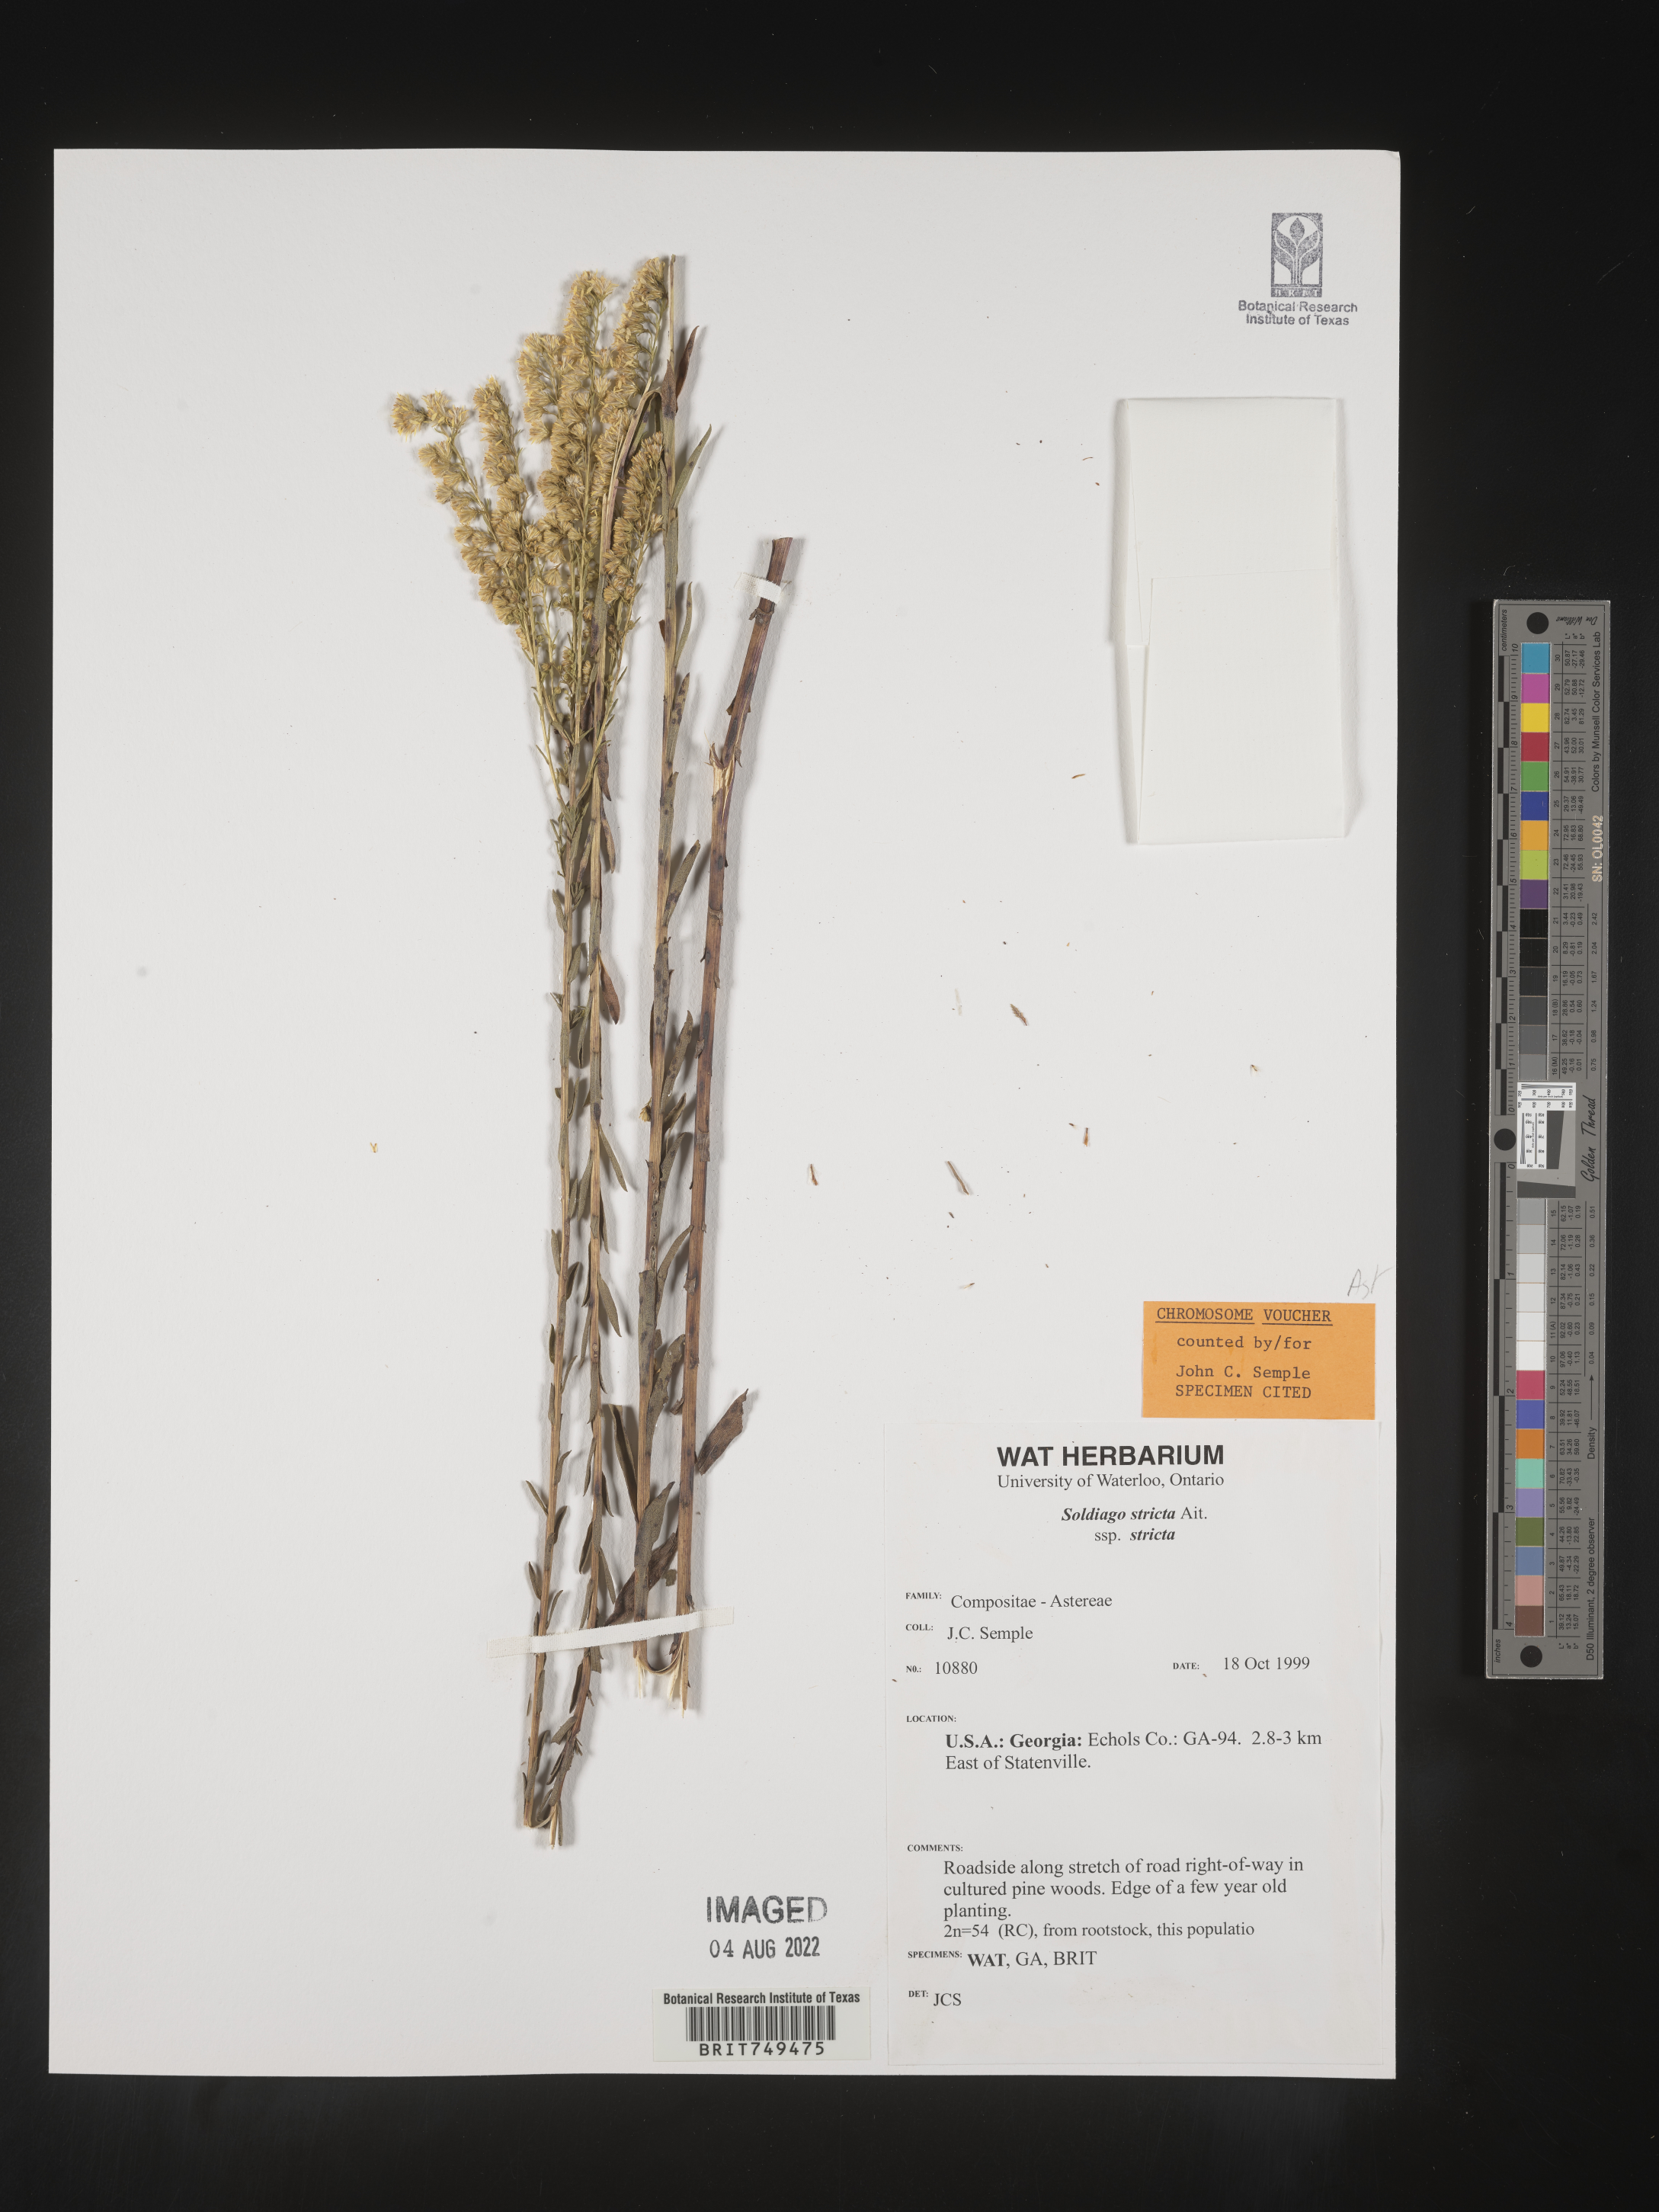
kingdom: Plantae
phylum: Tracheophyta
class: Magnoliopsida
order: Asterales
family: Asteraceae
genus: Solidago
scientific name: Solidago stricta
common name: Pine barren bog goldenrod
